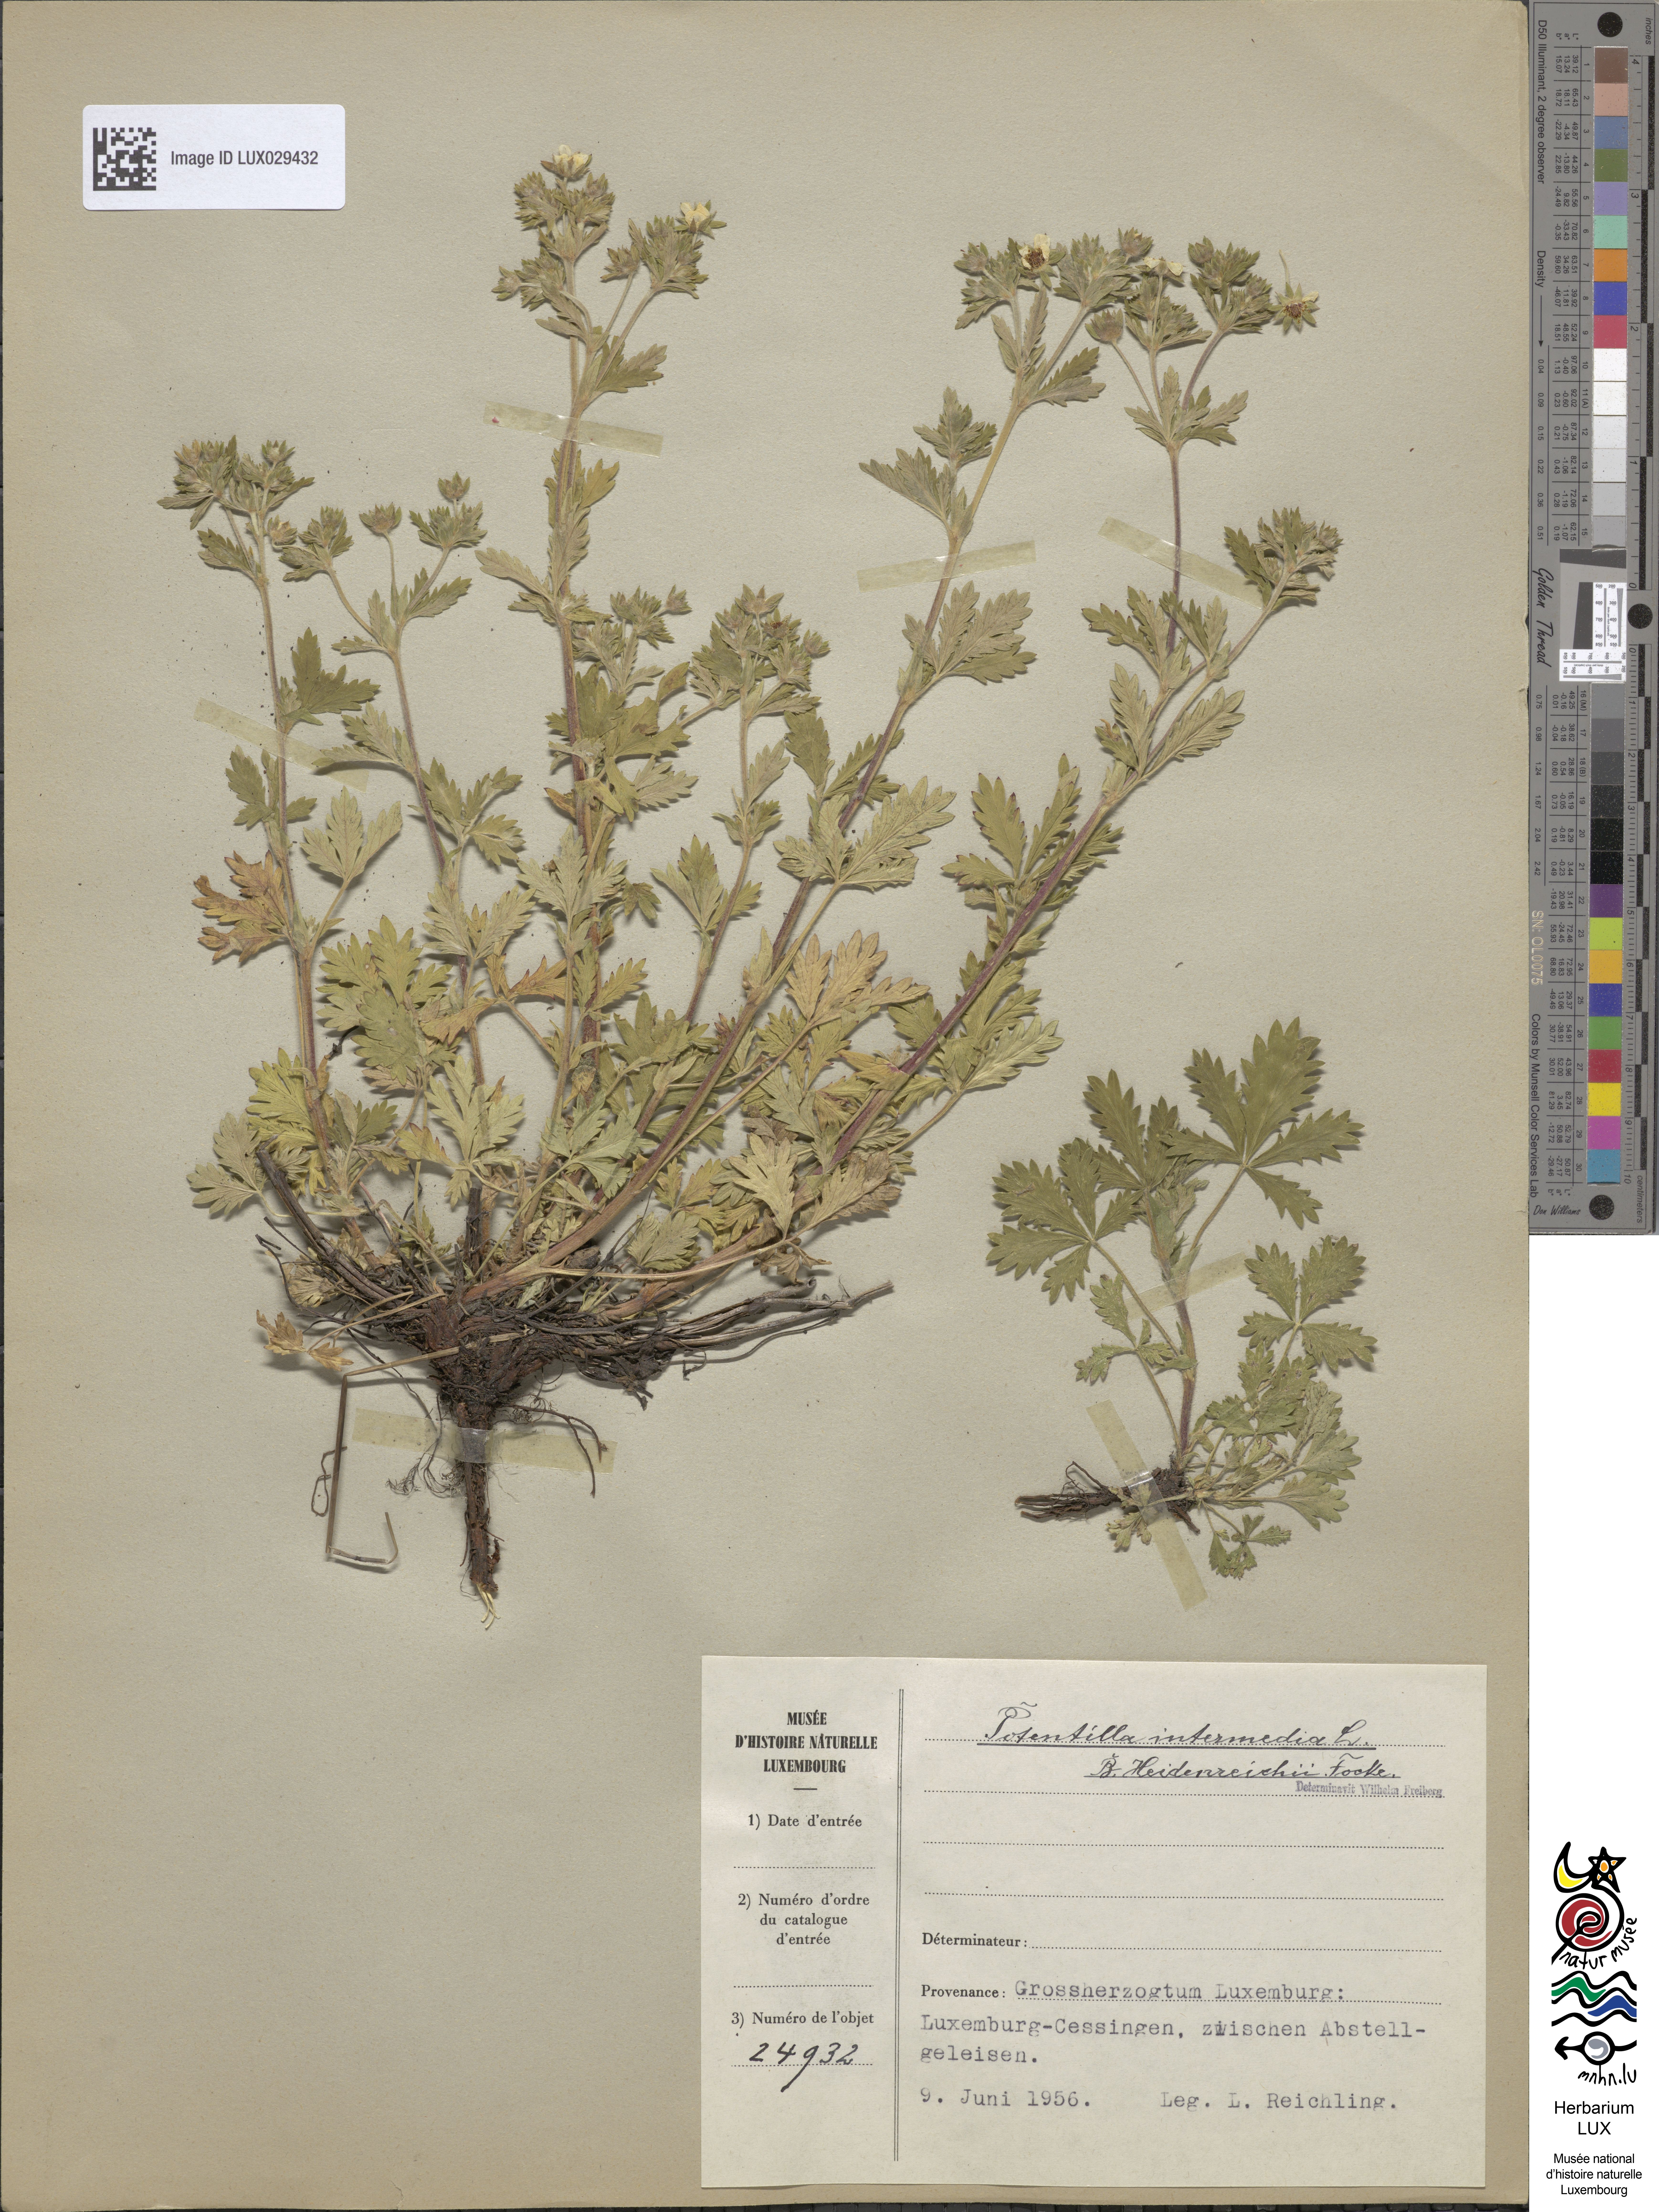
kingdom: Plantae
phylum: Tracheophyta
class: Magnoliopsida
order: Rosales
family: Rosaceae
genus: Potentilla
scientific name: Potentilla intermedia
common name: Downy cinquefoil
